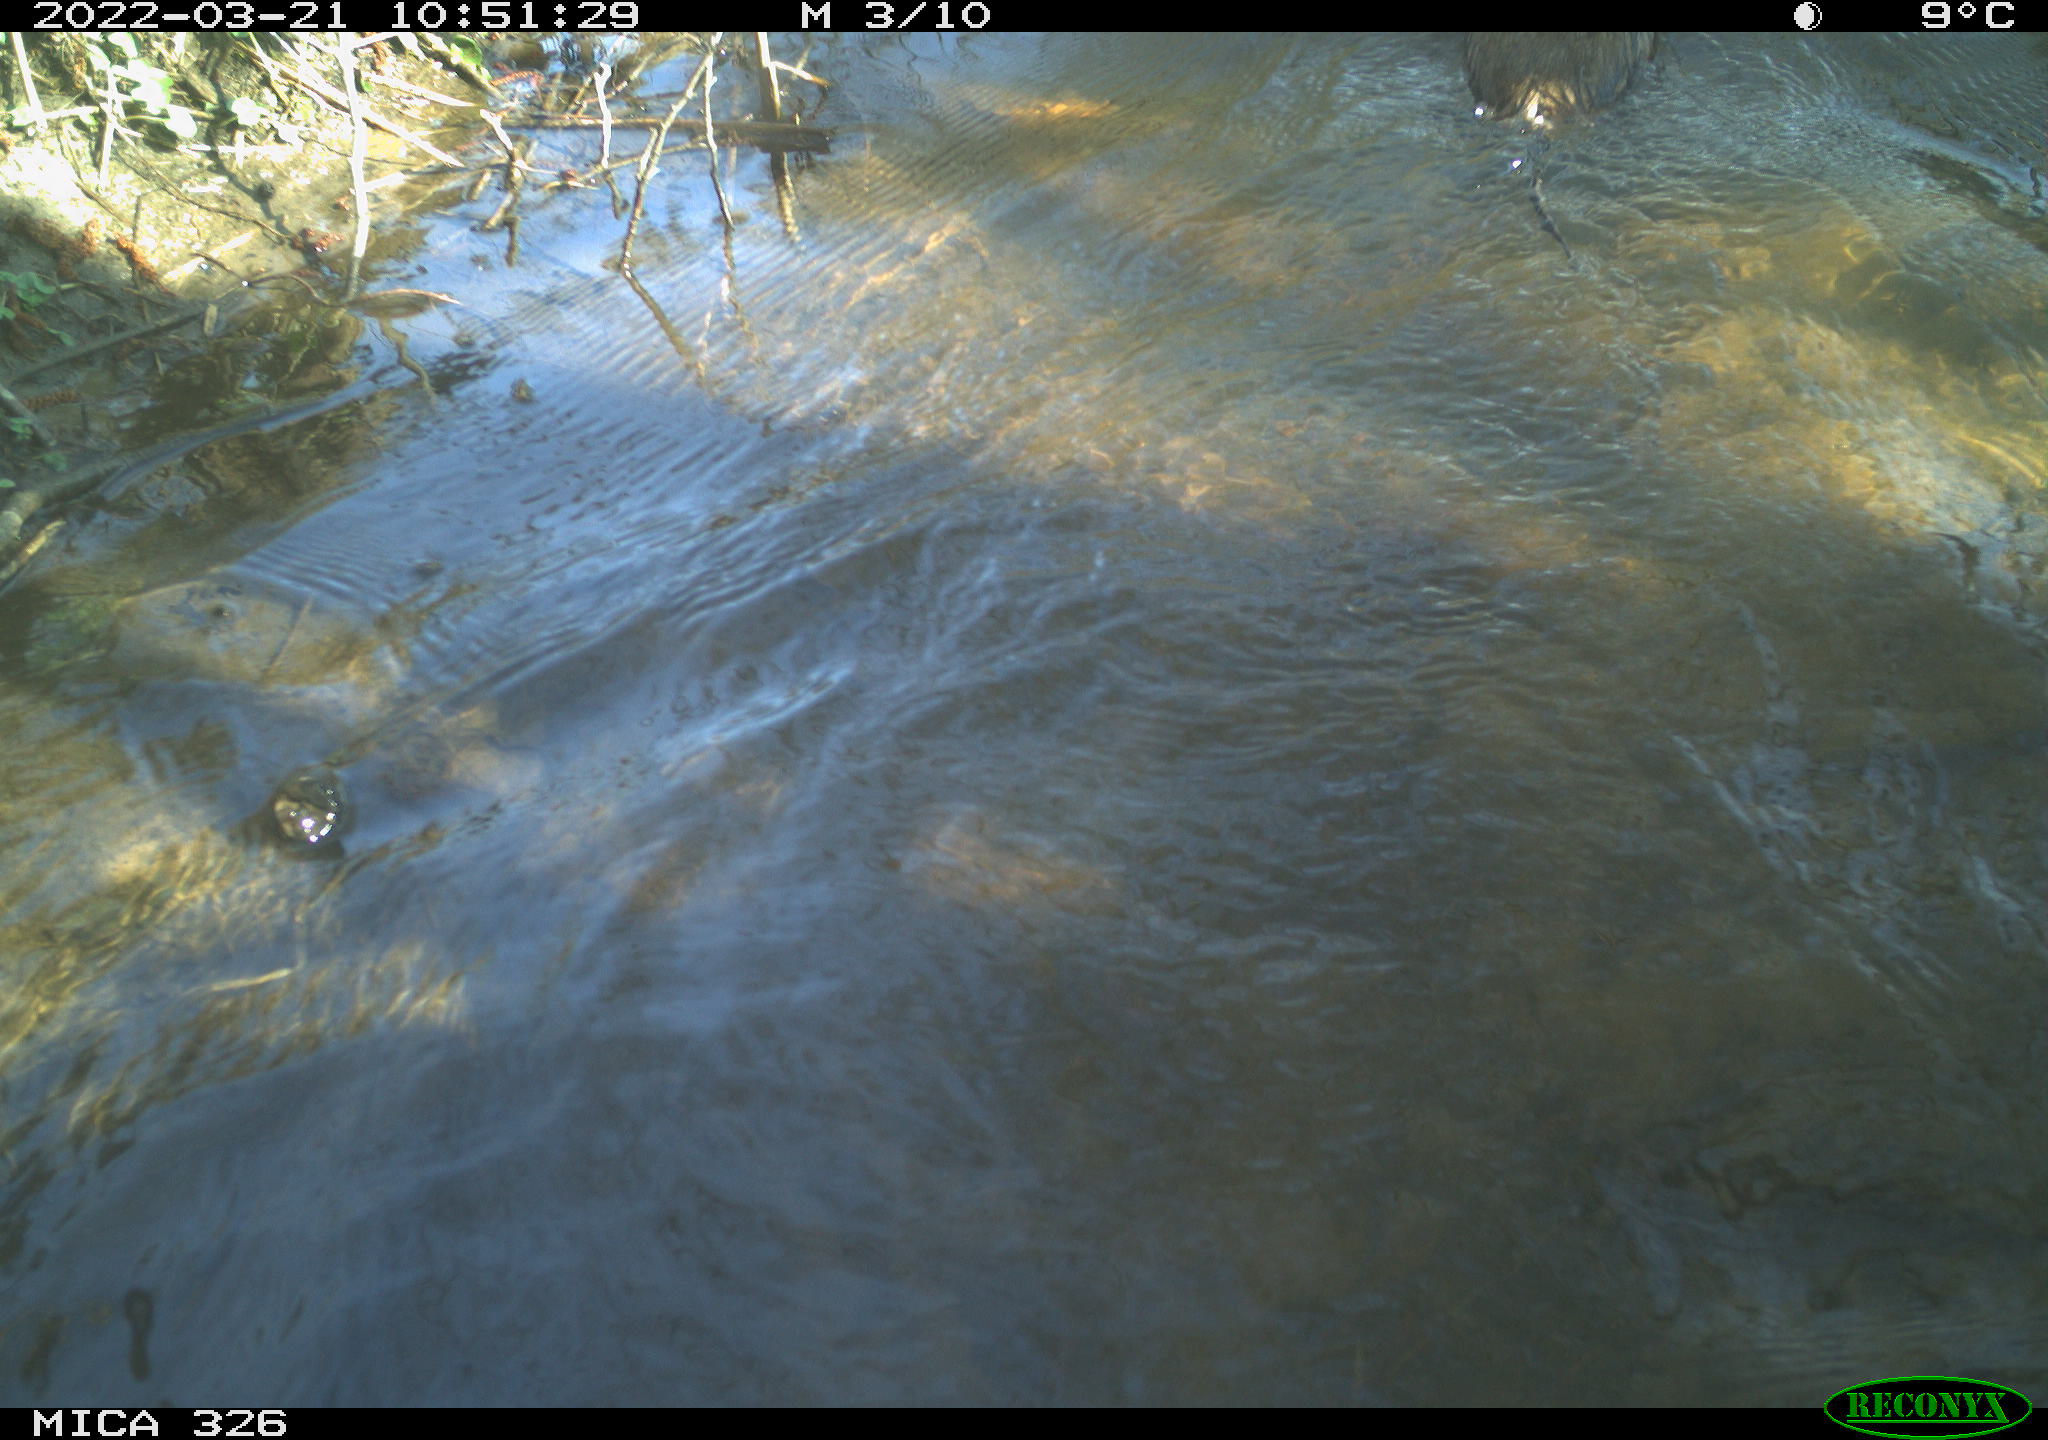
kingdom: Animalia
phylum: Chordata
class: Mammalia
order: Rodentia
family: Cricetidae
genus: Ondatra
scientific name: Ondatra zibethicus
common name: Muskrat
